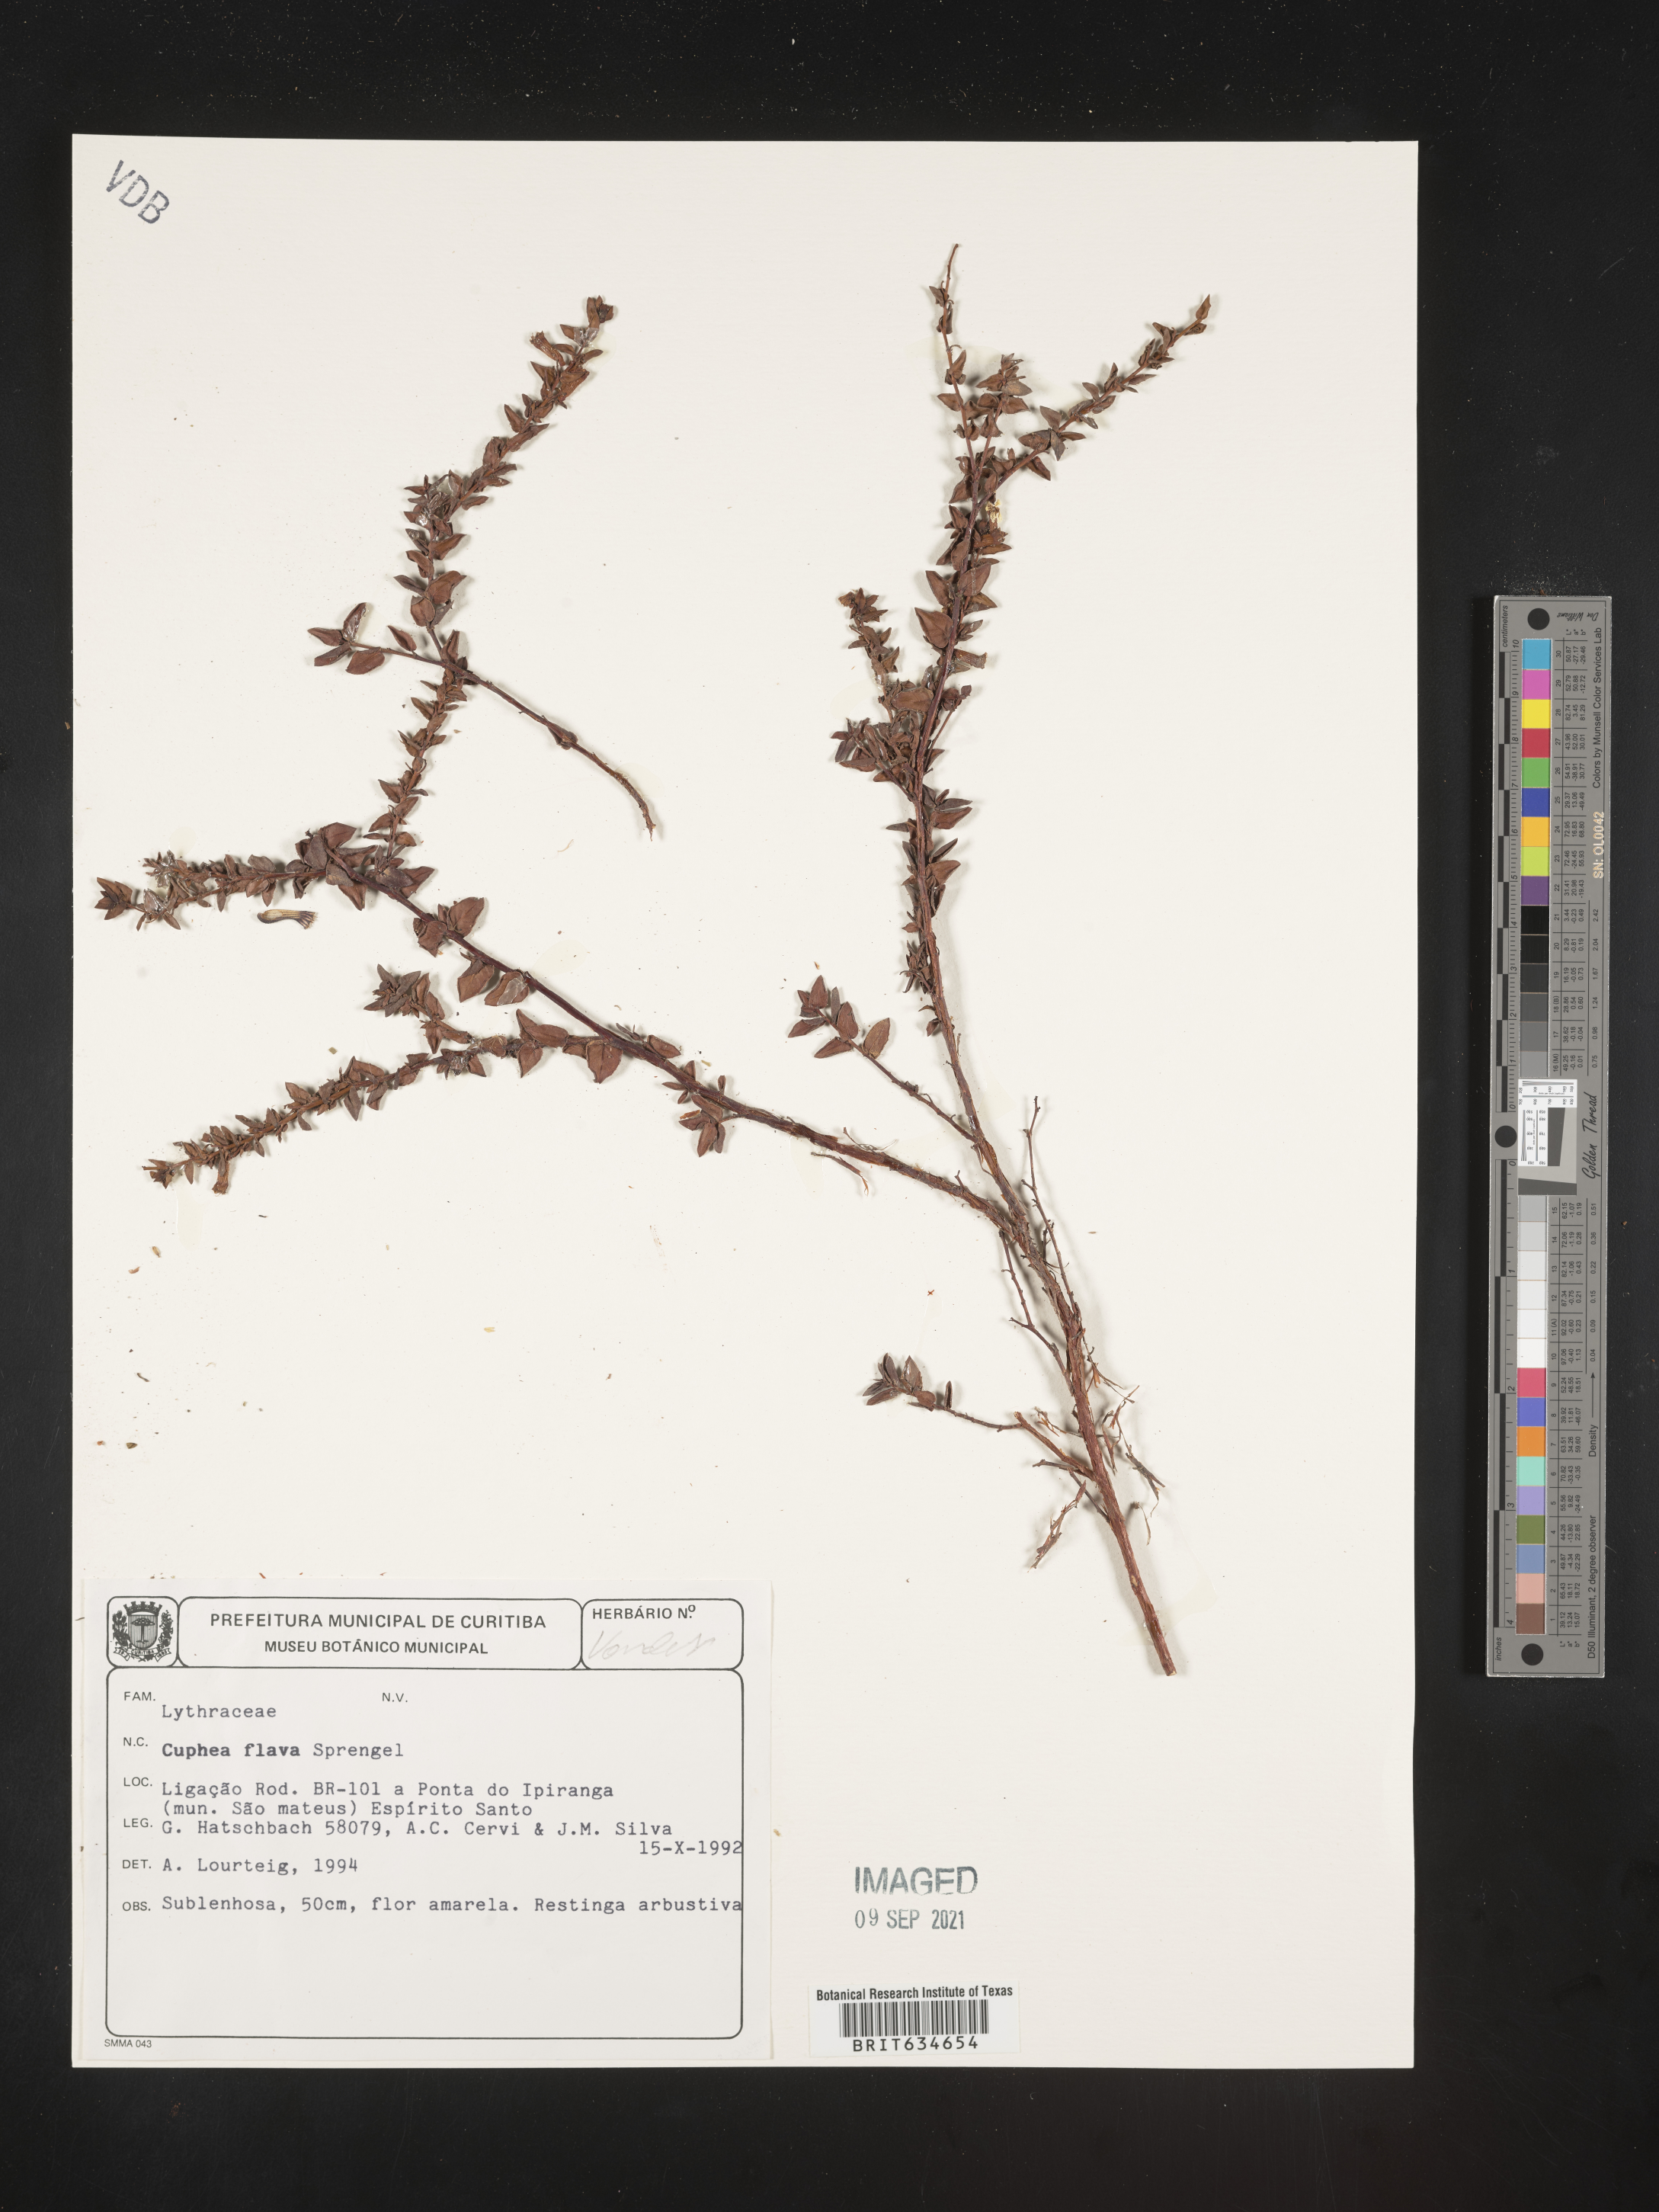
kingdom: Plantae
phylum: Tracheophyta
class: Magnoliopsida
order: Myrtales
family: Lythraceae
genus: Cuphea
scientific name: Cuphea
